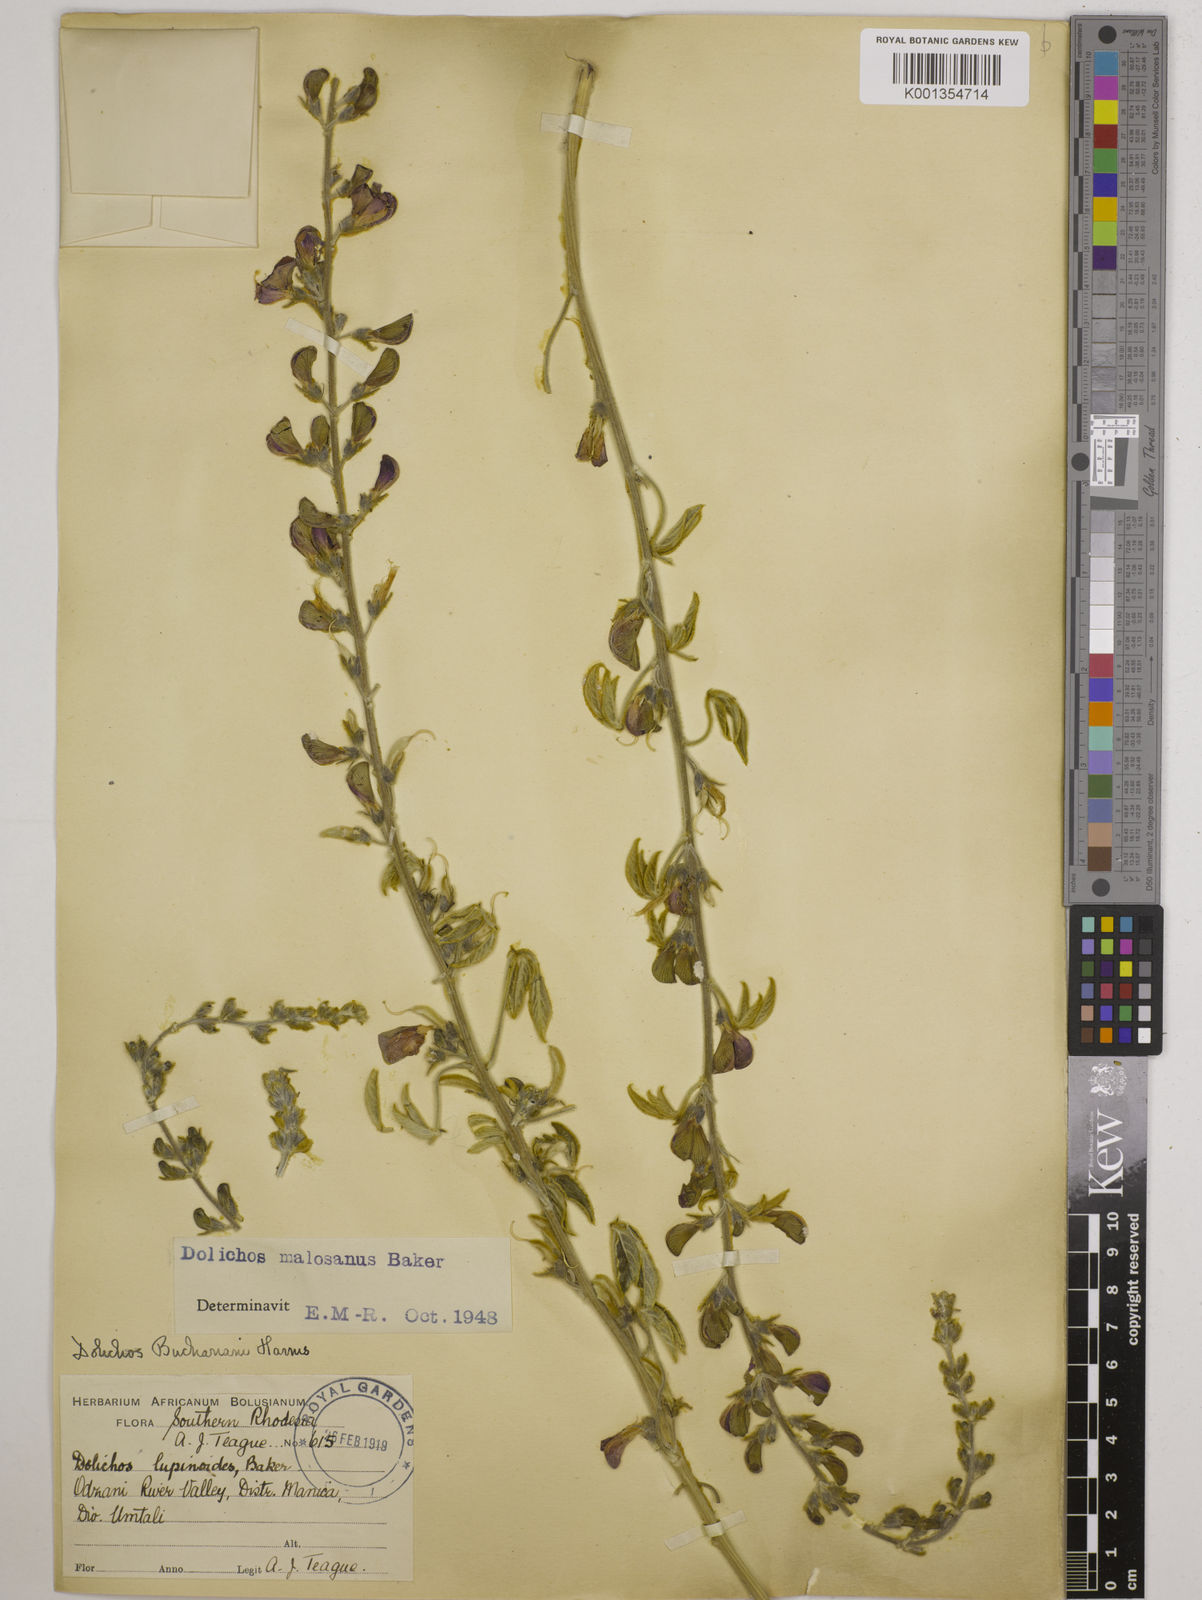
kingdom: Plantae
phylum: Tracheophyta
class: Magnoliopsida
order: Fabales
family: Fabaceae
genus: Dolichos
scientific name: Dolichos kilimandscharicus
